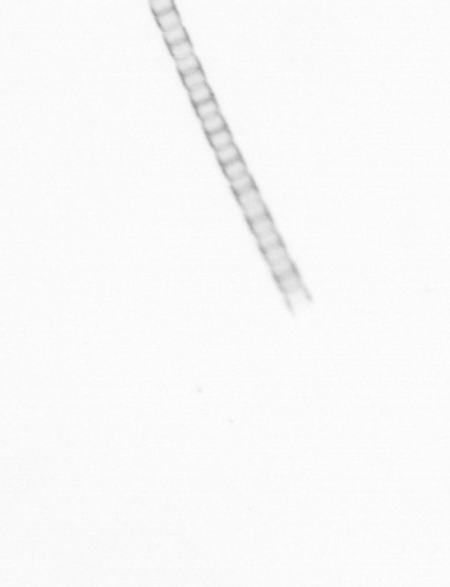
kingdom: Chromista
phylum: Ochrophyta
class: Bacillariophyceae
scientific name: Bacillariophyceae
